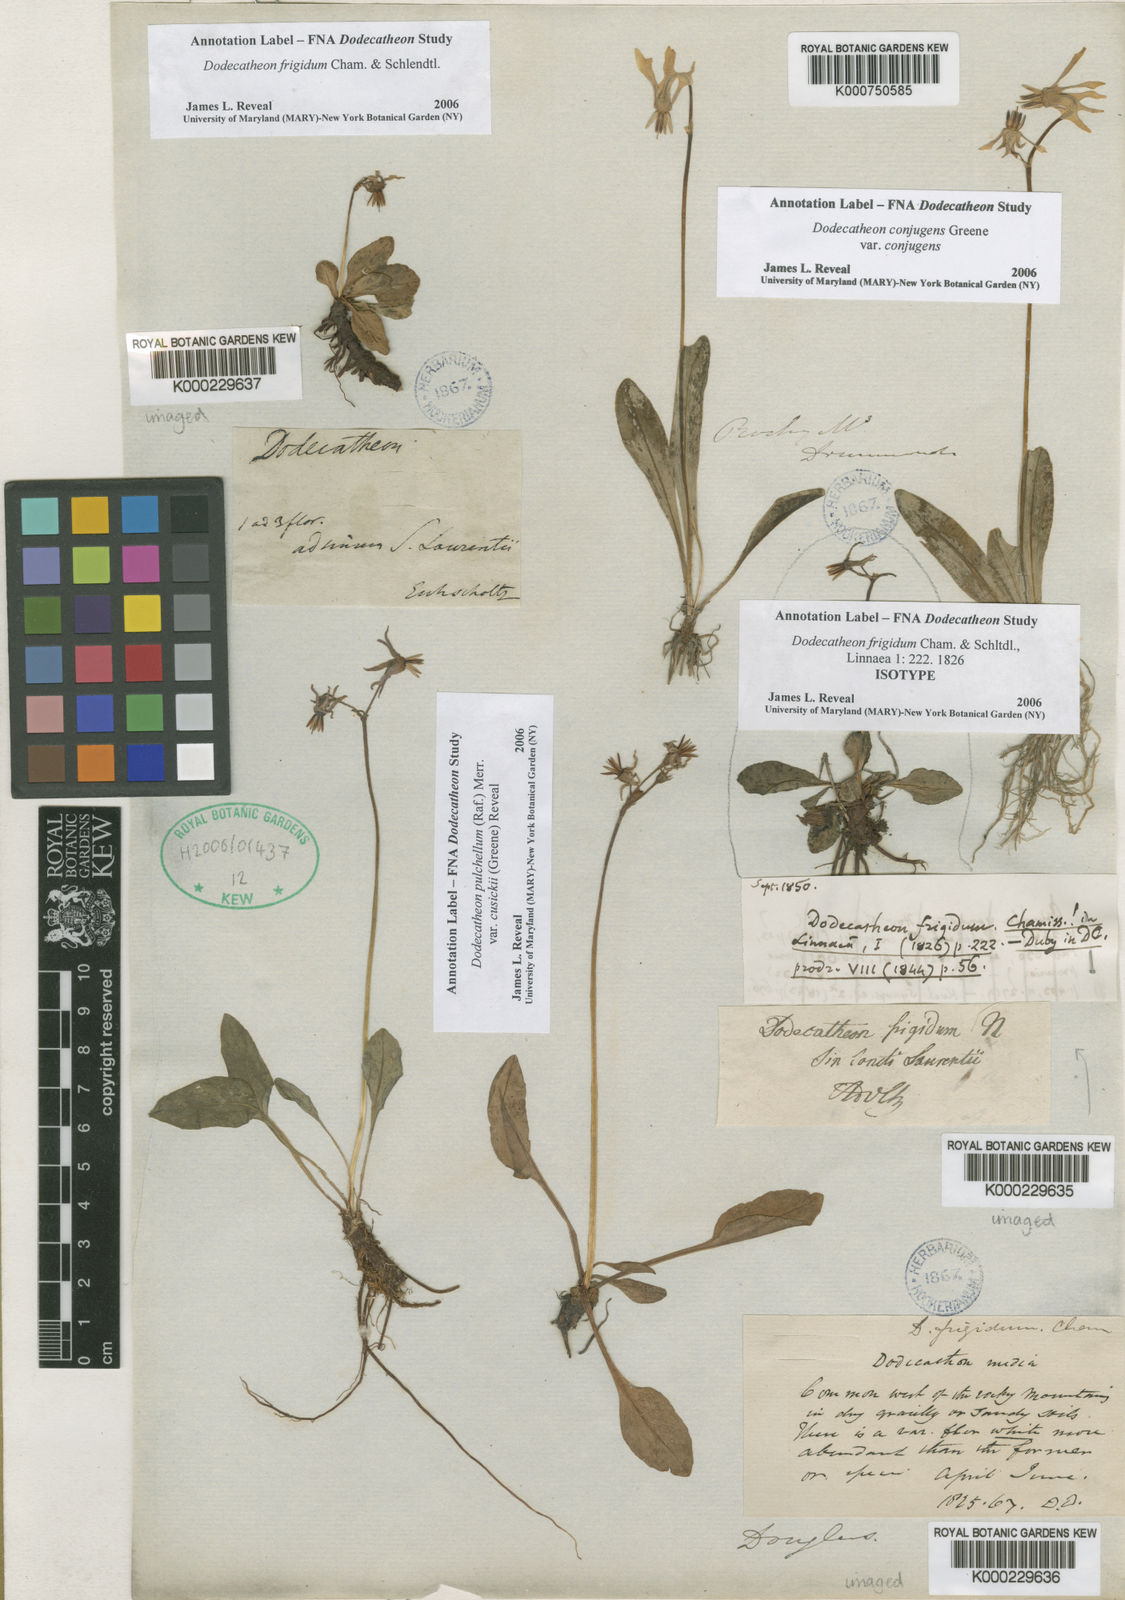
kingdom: Plantae
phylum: Tracheophyta
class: Magnoliopsida
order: Ericales
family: Primulaceae
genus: Dodecatheon
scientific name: Dodecatheon conjugens
